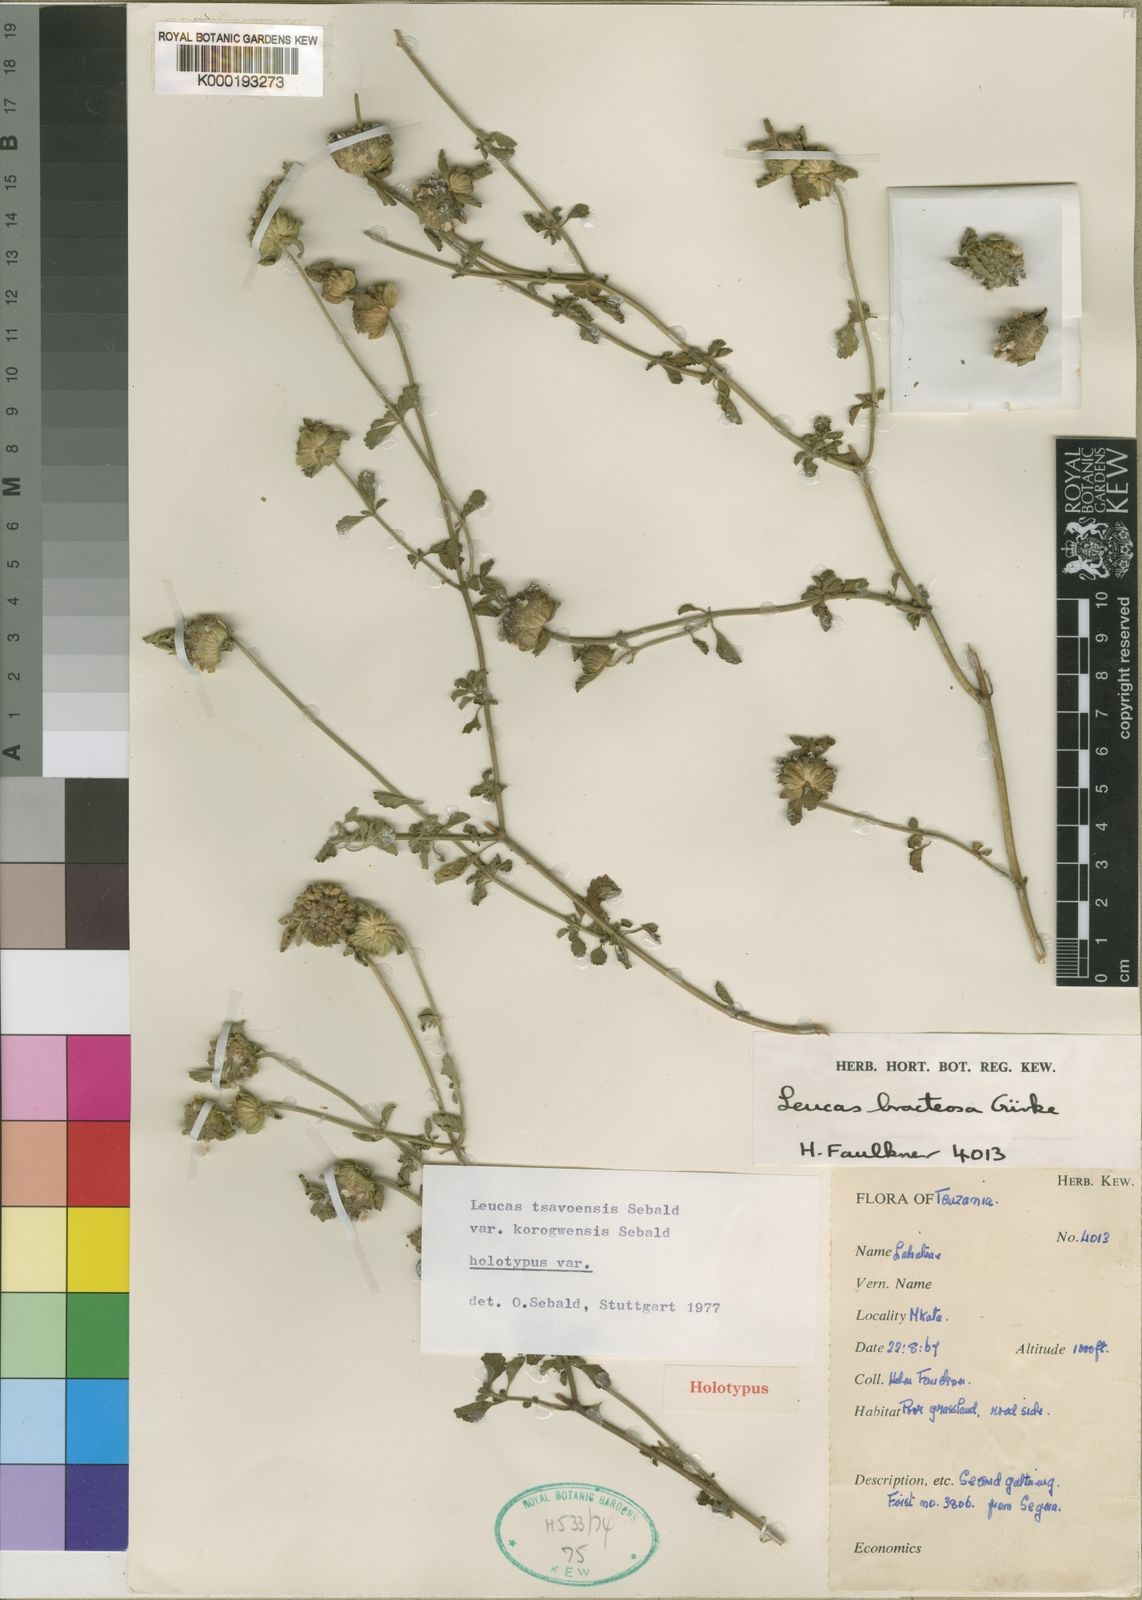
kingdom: Plantae
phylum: Tracheophyta
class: Magnoliopsida
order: Lamiales
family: Lamiaceae
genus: Leucas
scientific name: Leucas tsavoensis
